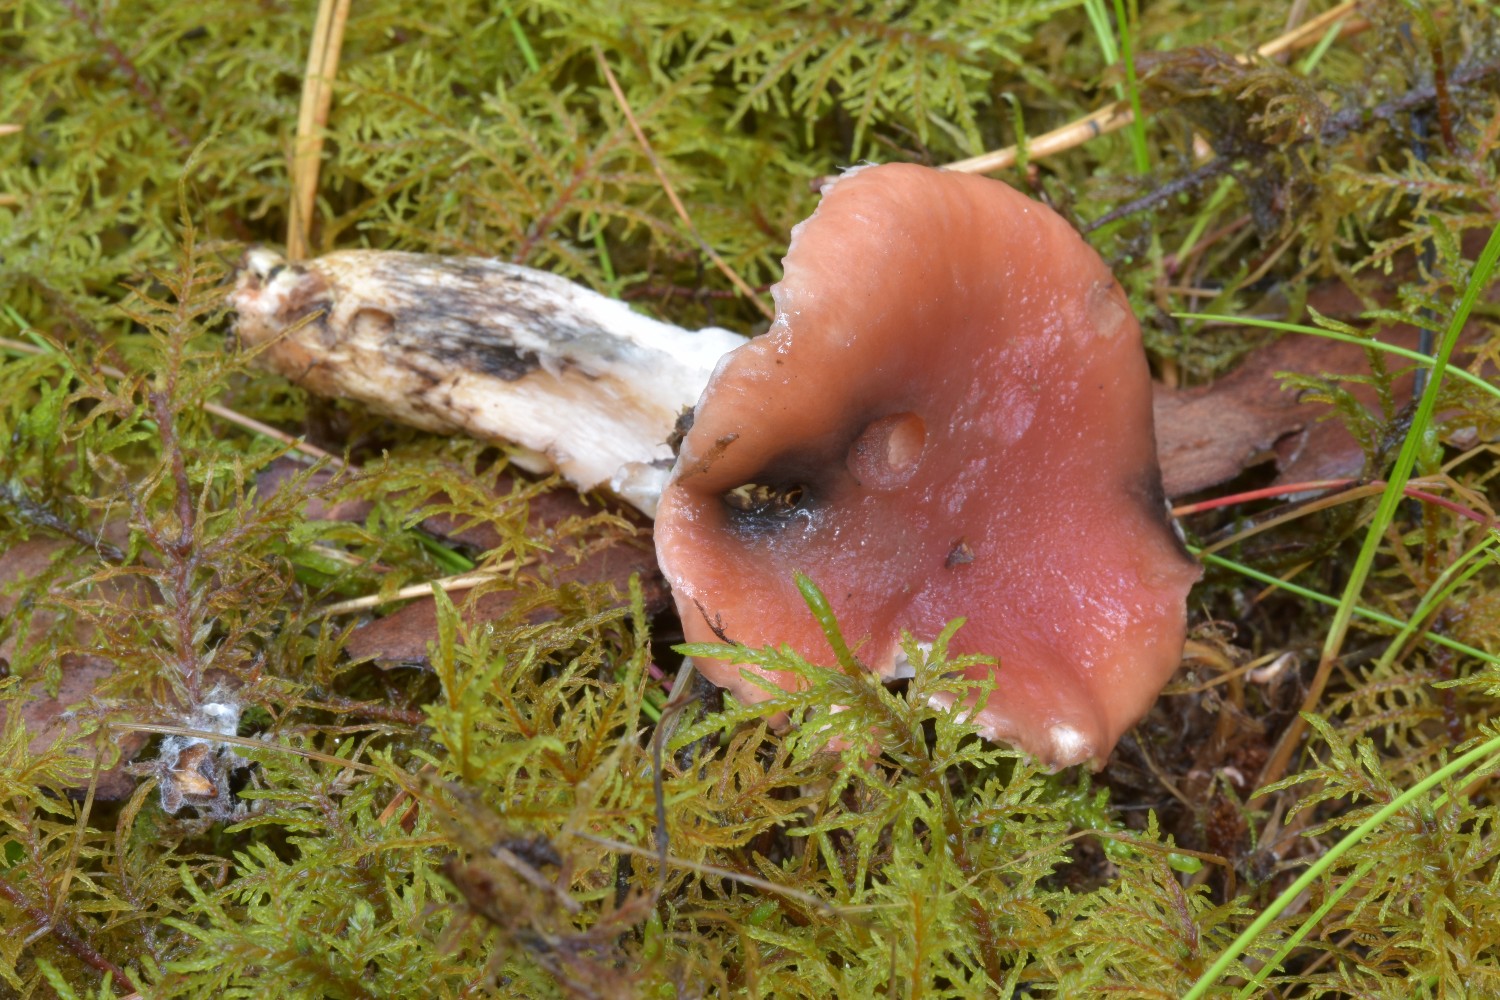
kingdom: Fungi
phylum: Basidiomycota
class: Agaricomycetes
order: Boletales
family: Gomphidiaceae
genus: Gomphidius
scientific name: Gomphidius roseus
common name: rosenrød slimslør
